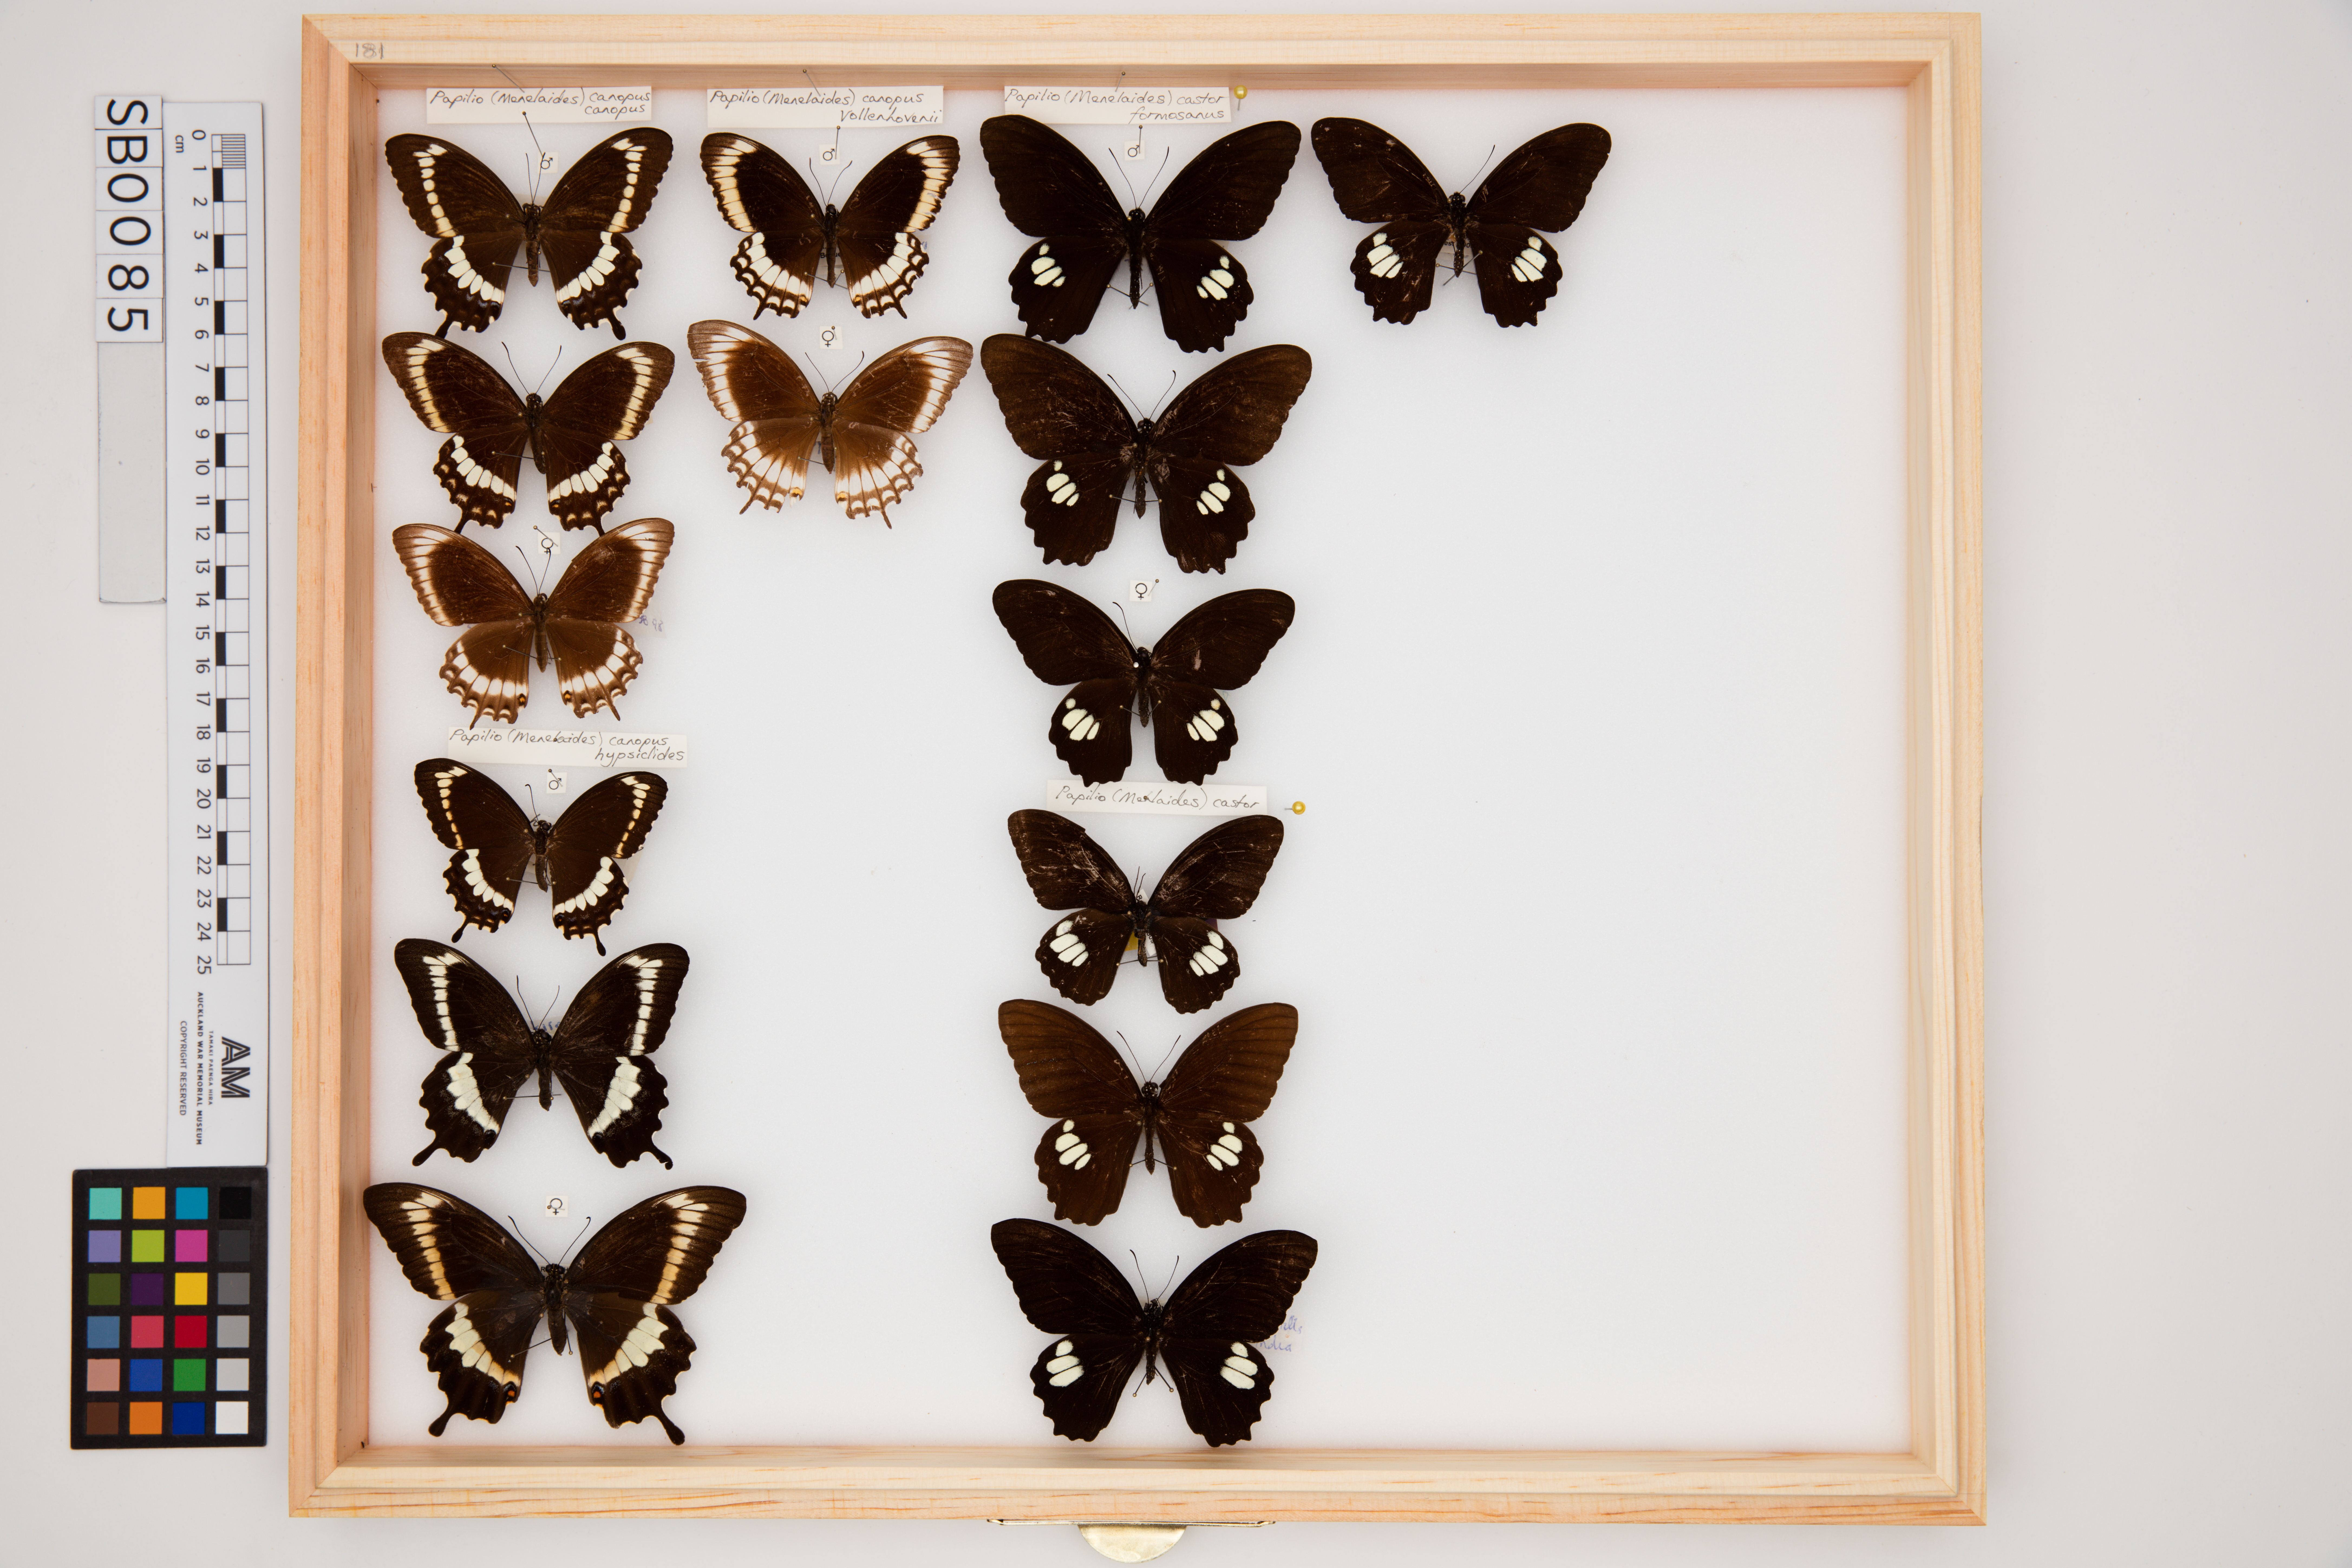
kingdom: Animalia
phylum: Arthropoda
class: Insecta
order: Lepidoptera
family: Papilionidae
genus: Papilio
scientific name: Papilio castor
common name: Common raven
